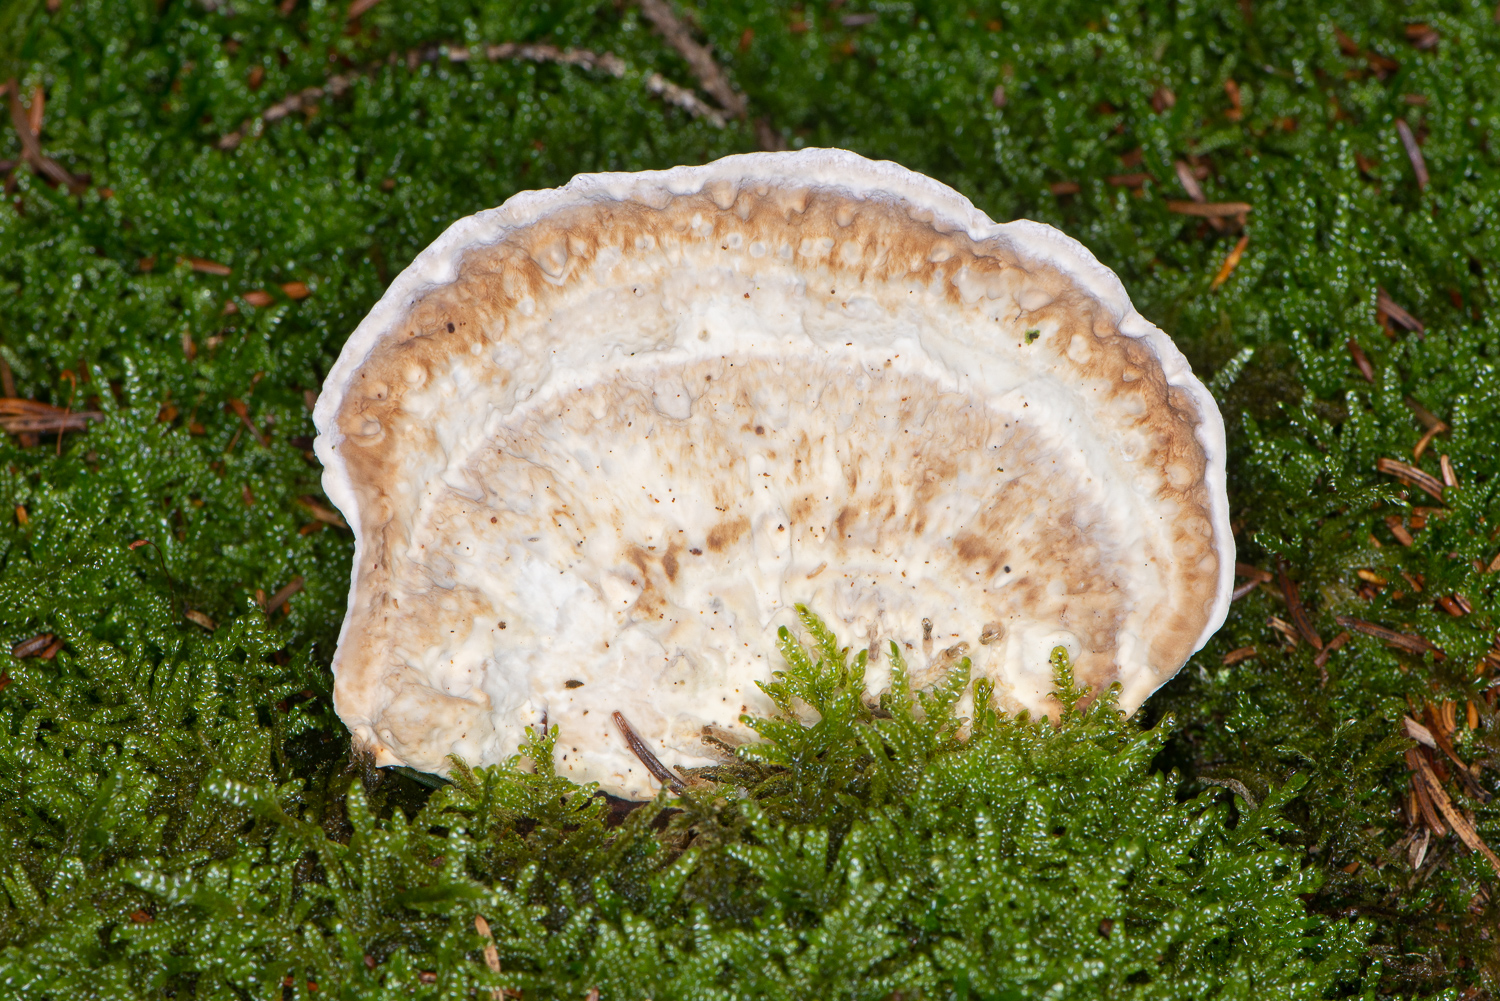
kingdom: Fungi
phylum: Basidiomycota
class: Agaricomycetes
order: Polyporales
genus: Calcipostia
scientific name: Calcipostia guttulata
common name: dråbe-kødporesvamp
